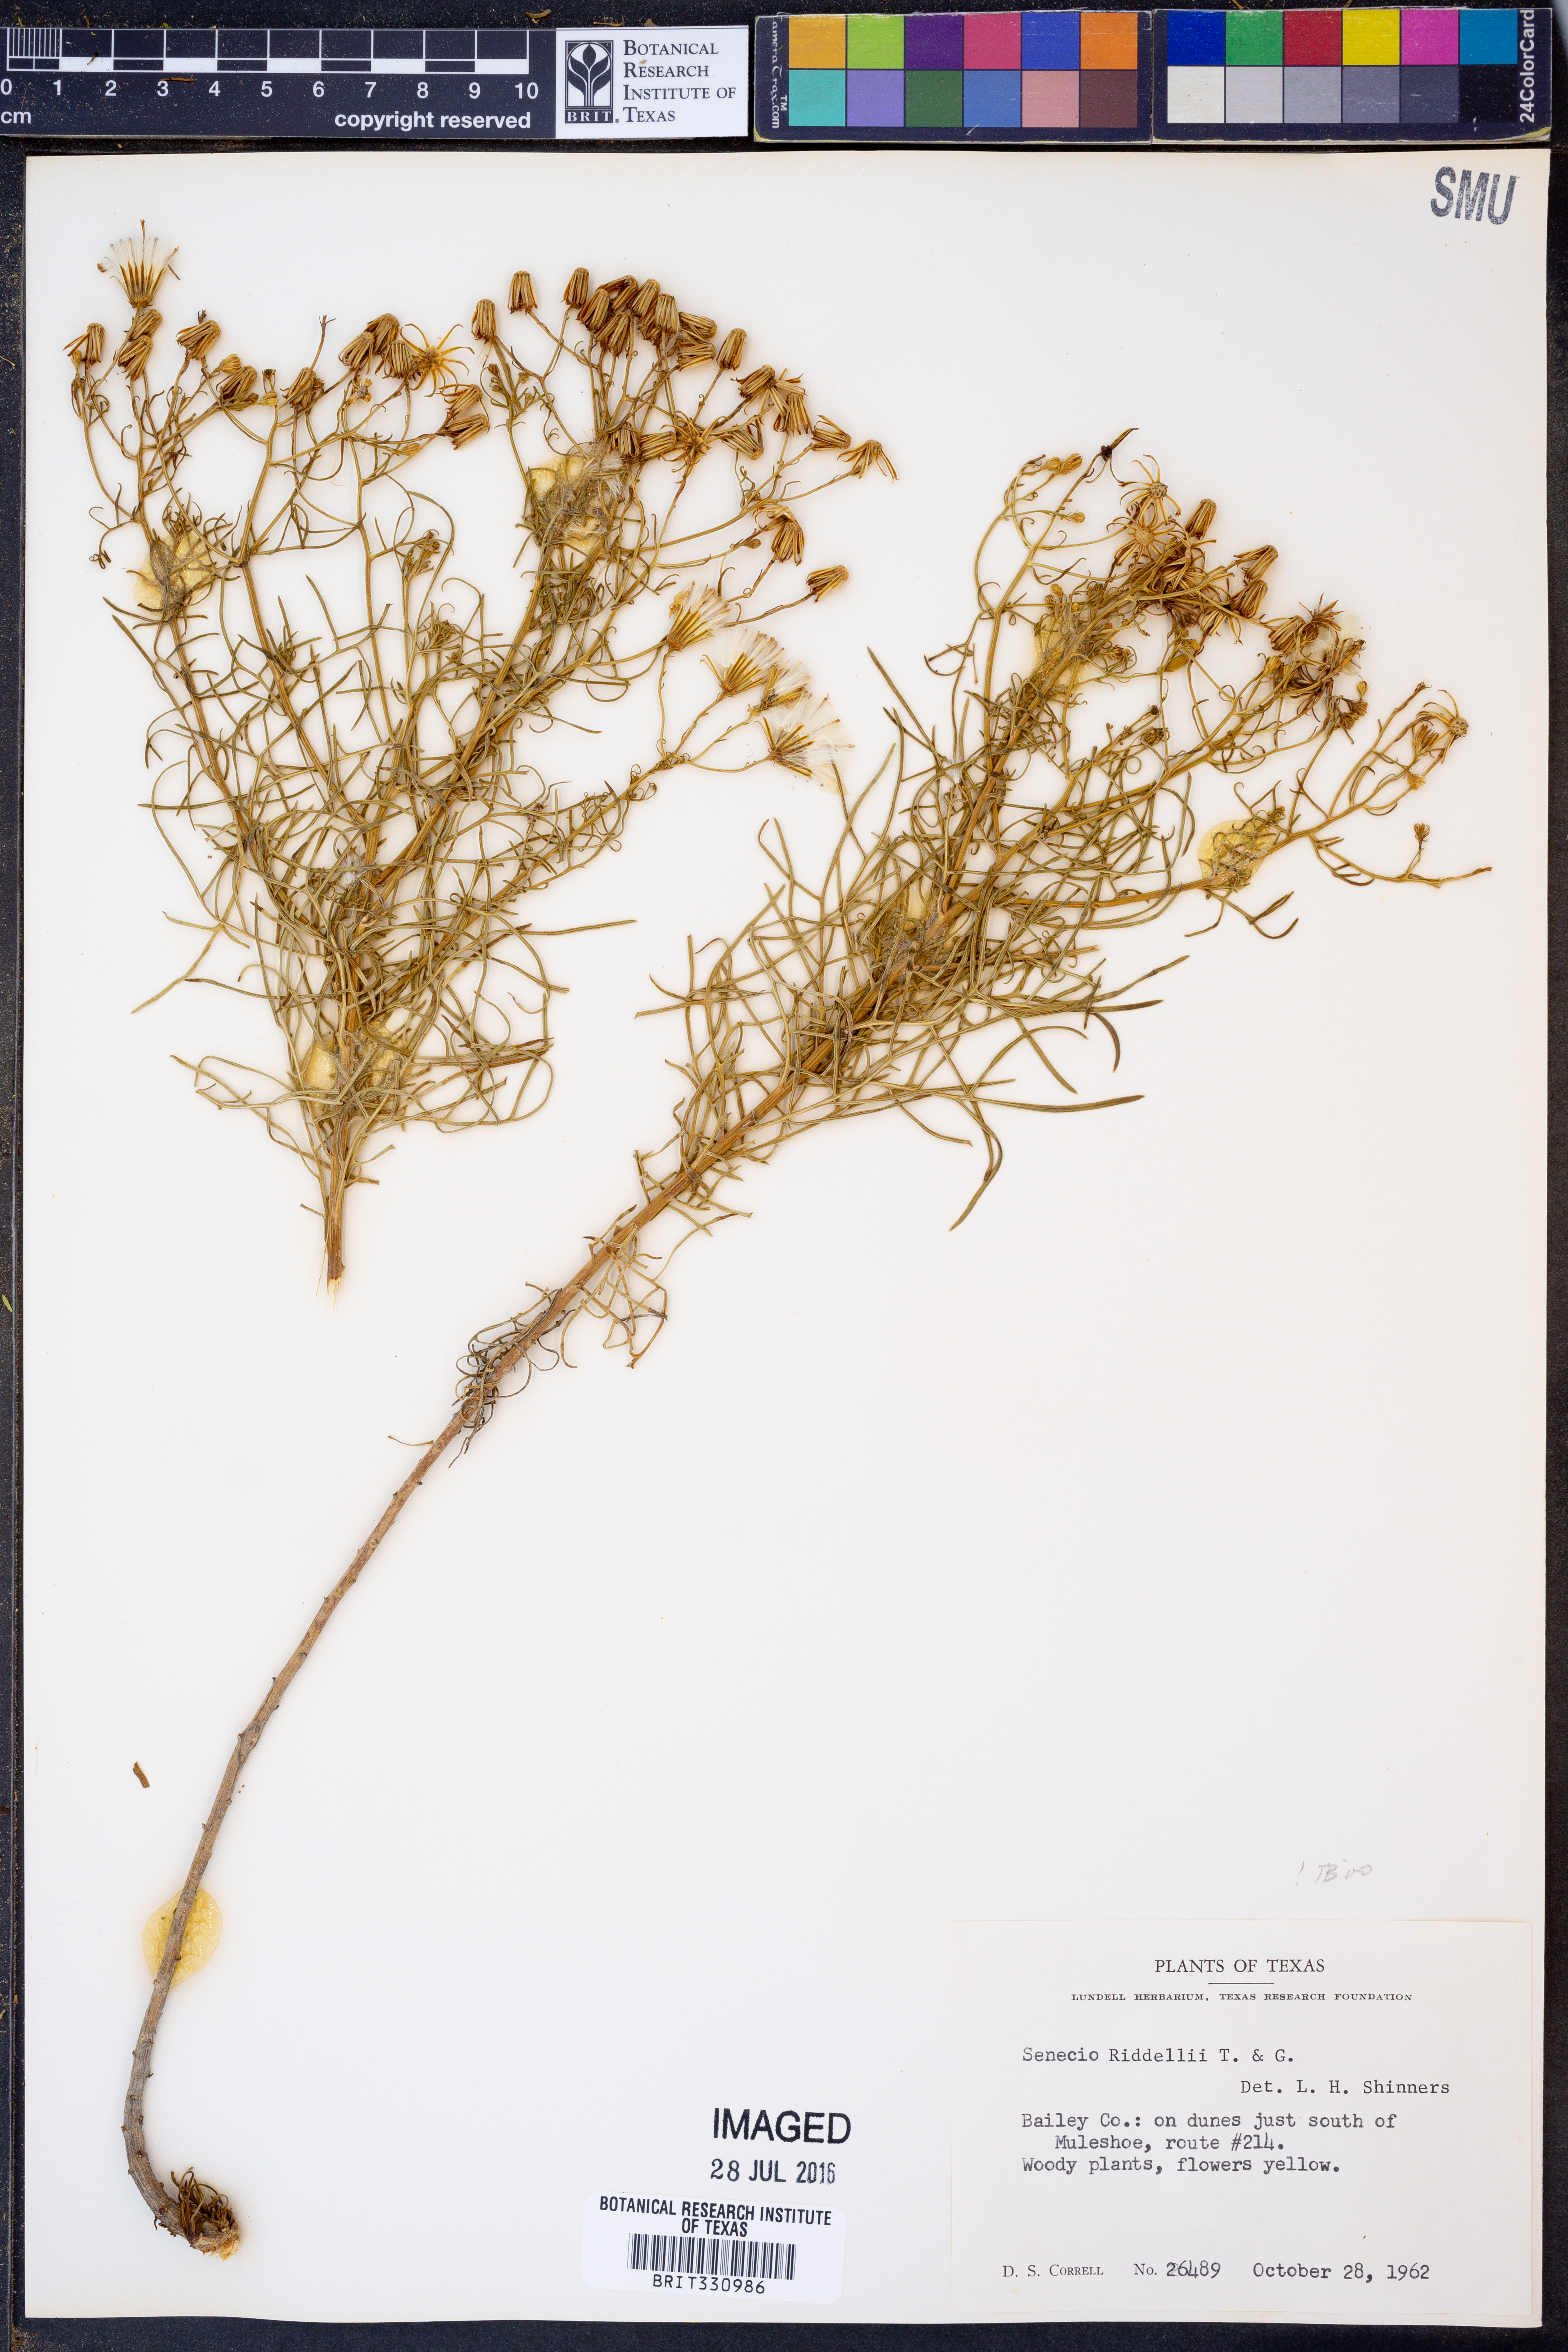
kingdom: Plantae
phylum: Tracheophyta
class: Magnoliopsida
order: Asterales
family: Asteraceae
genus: Senecio
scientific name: Senecio riddellii
